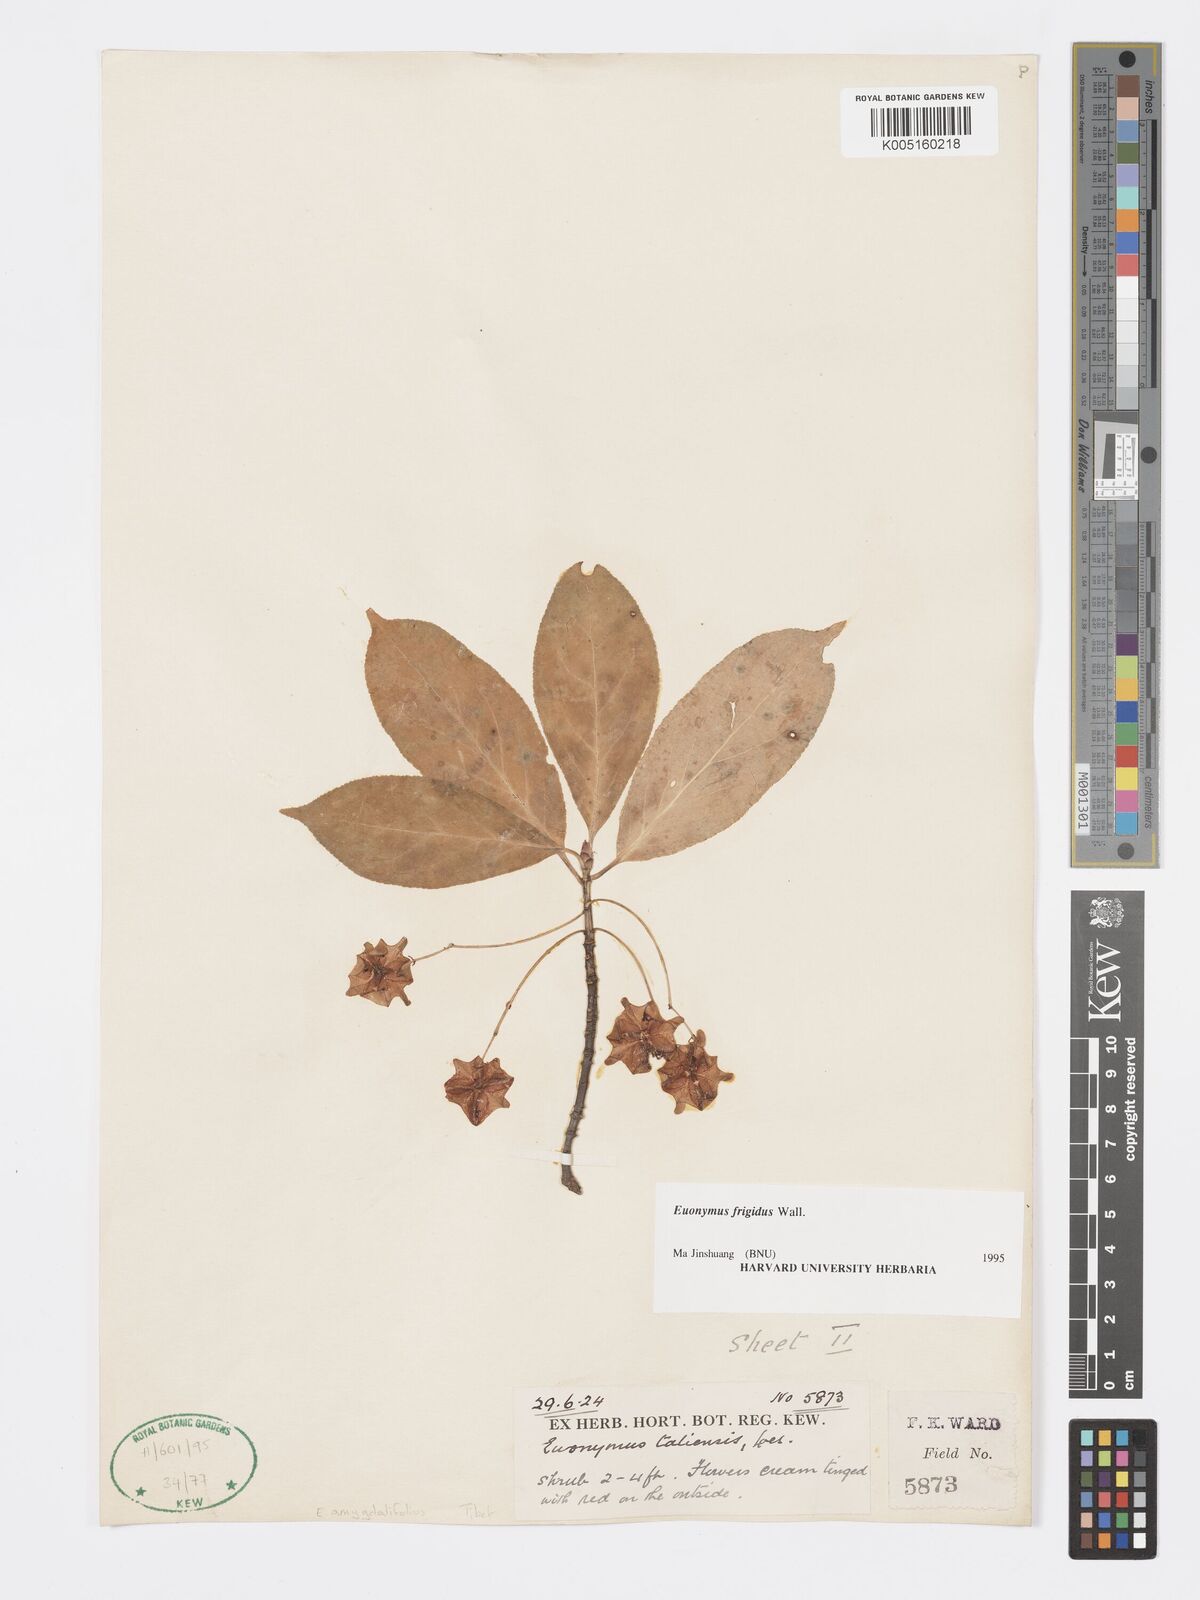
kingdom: Plantae
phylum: Tracheophyta
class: Magnoliopsida
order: Celastrales
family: Celastraceae
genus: Euonymus
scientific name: Euonymus frigidus
